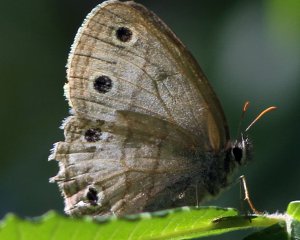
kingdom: Animalia
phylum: Arthropoda
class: Insecta
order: Lepidoptera
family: Nymphalidae
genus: Euptychia
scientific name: Euptychia cymela
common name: Little Wood Satyr
